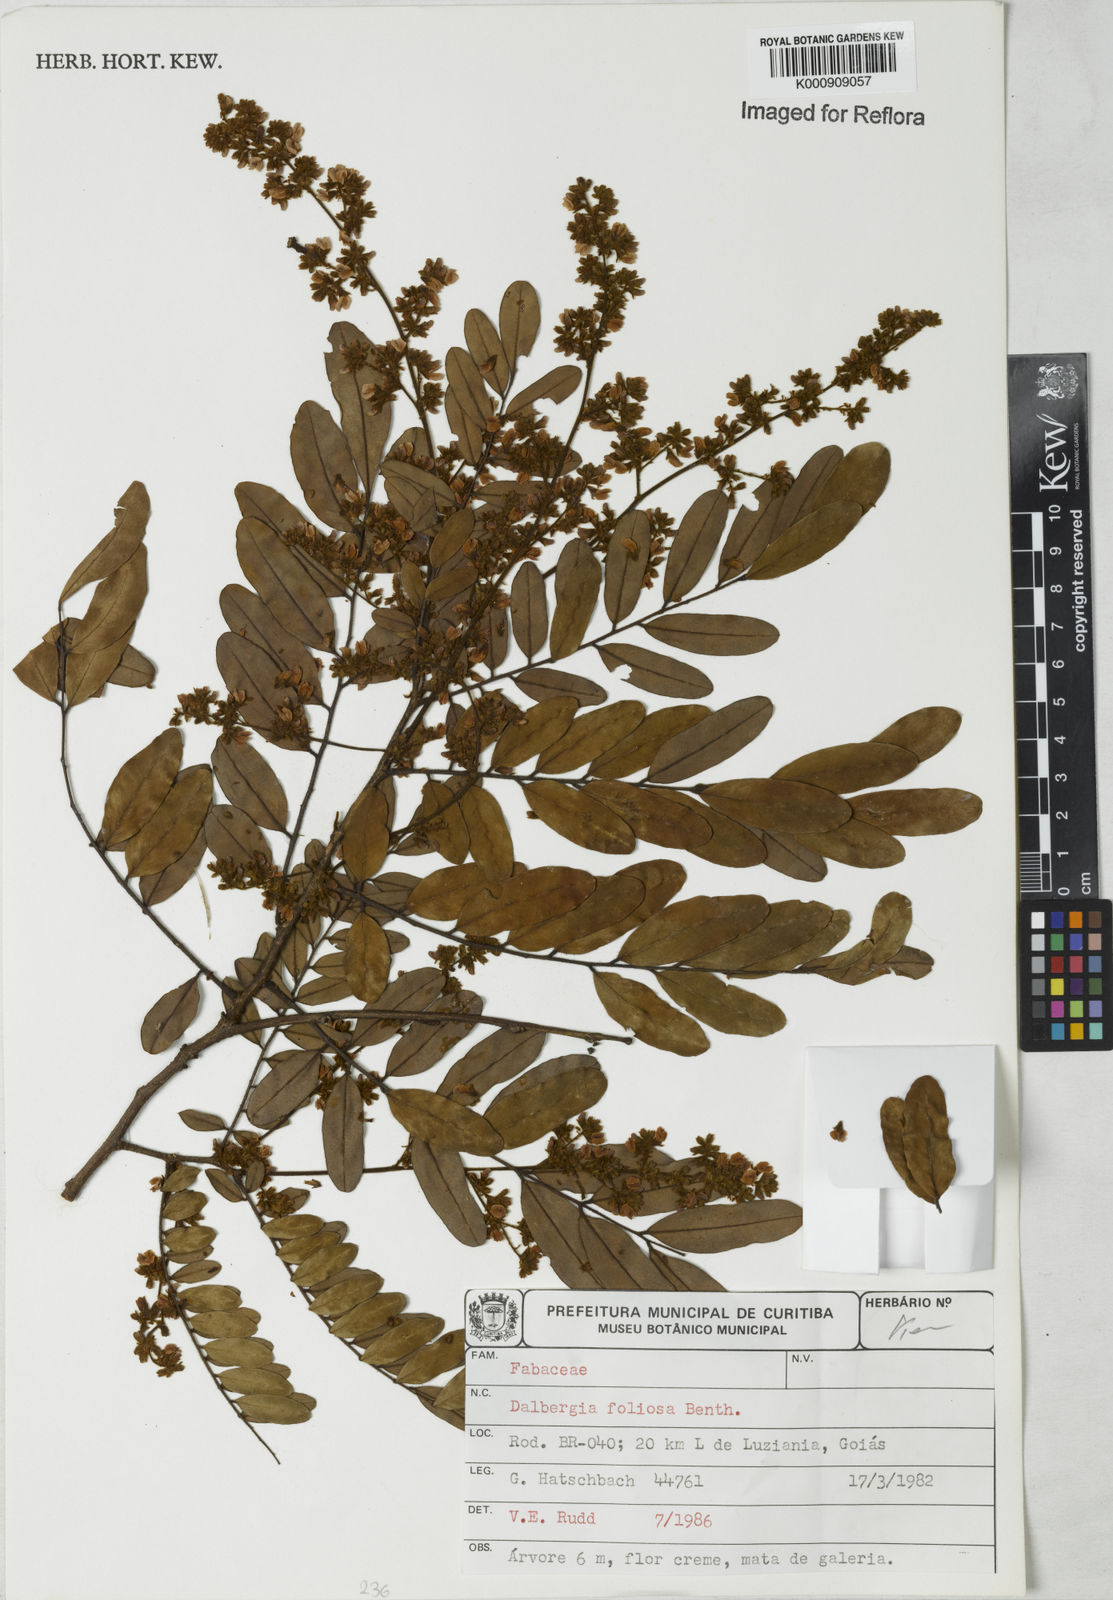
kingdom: Plantae
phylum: Tracheophyta
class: Magnoliopsida
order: Fabales
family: Fabaceae
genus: Dalbergia
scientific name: Dalbergia foliolosa
